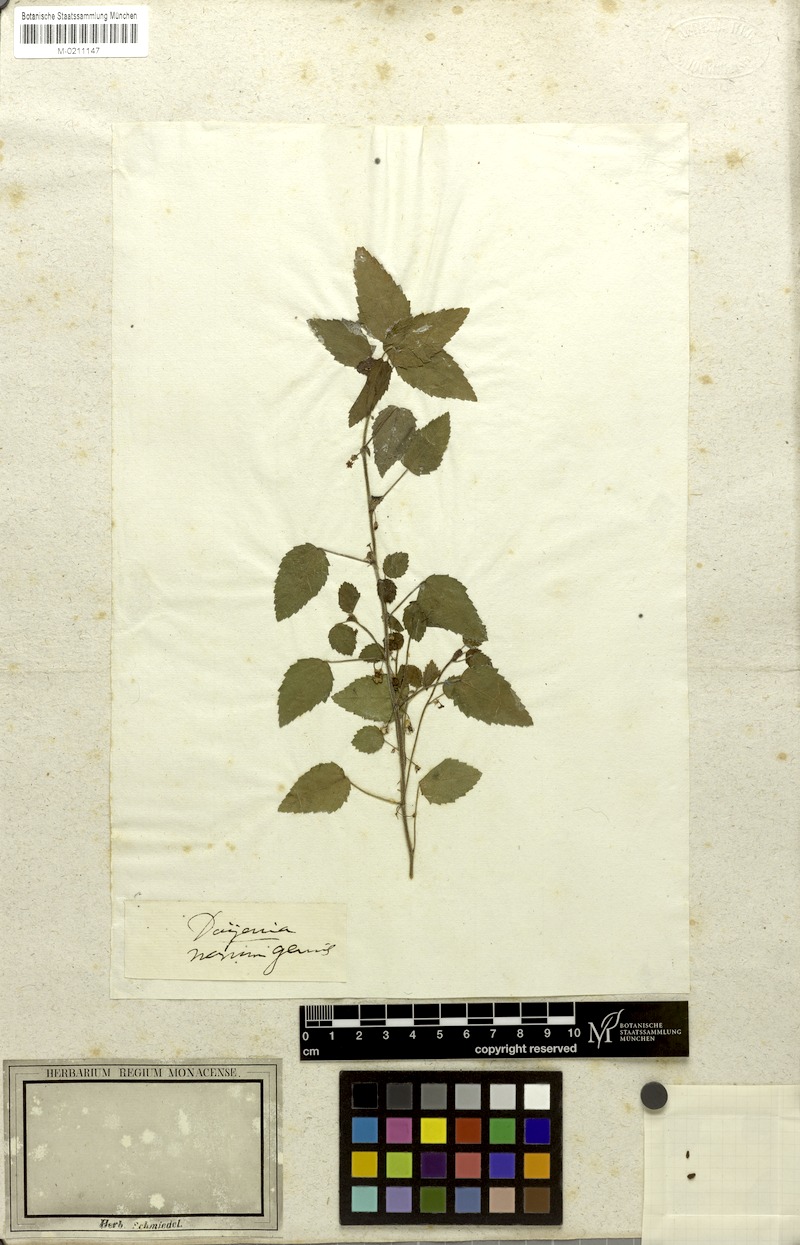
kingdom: Plantae
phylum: Tracheophyta
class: Magnoliopsida
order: Malvales
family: Malvaceae
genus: Ayenia
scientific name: Ayenia pusilla
